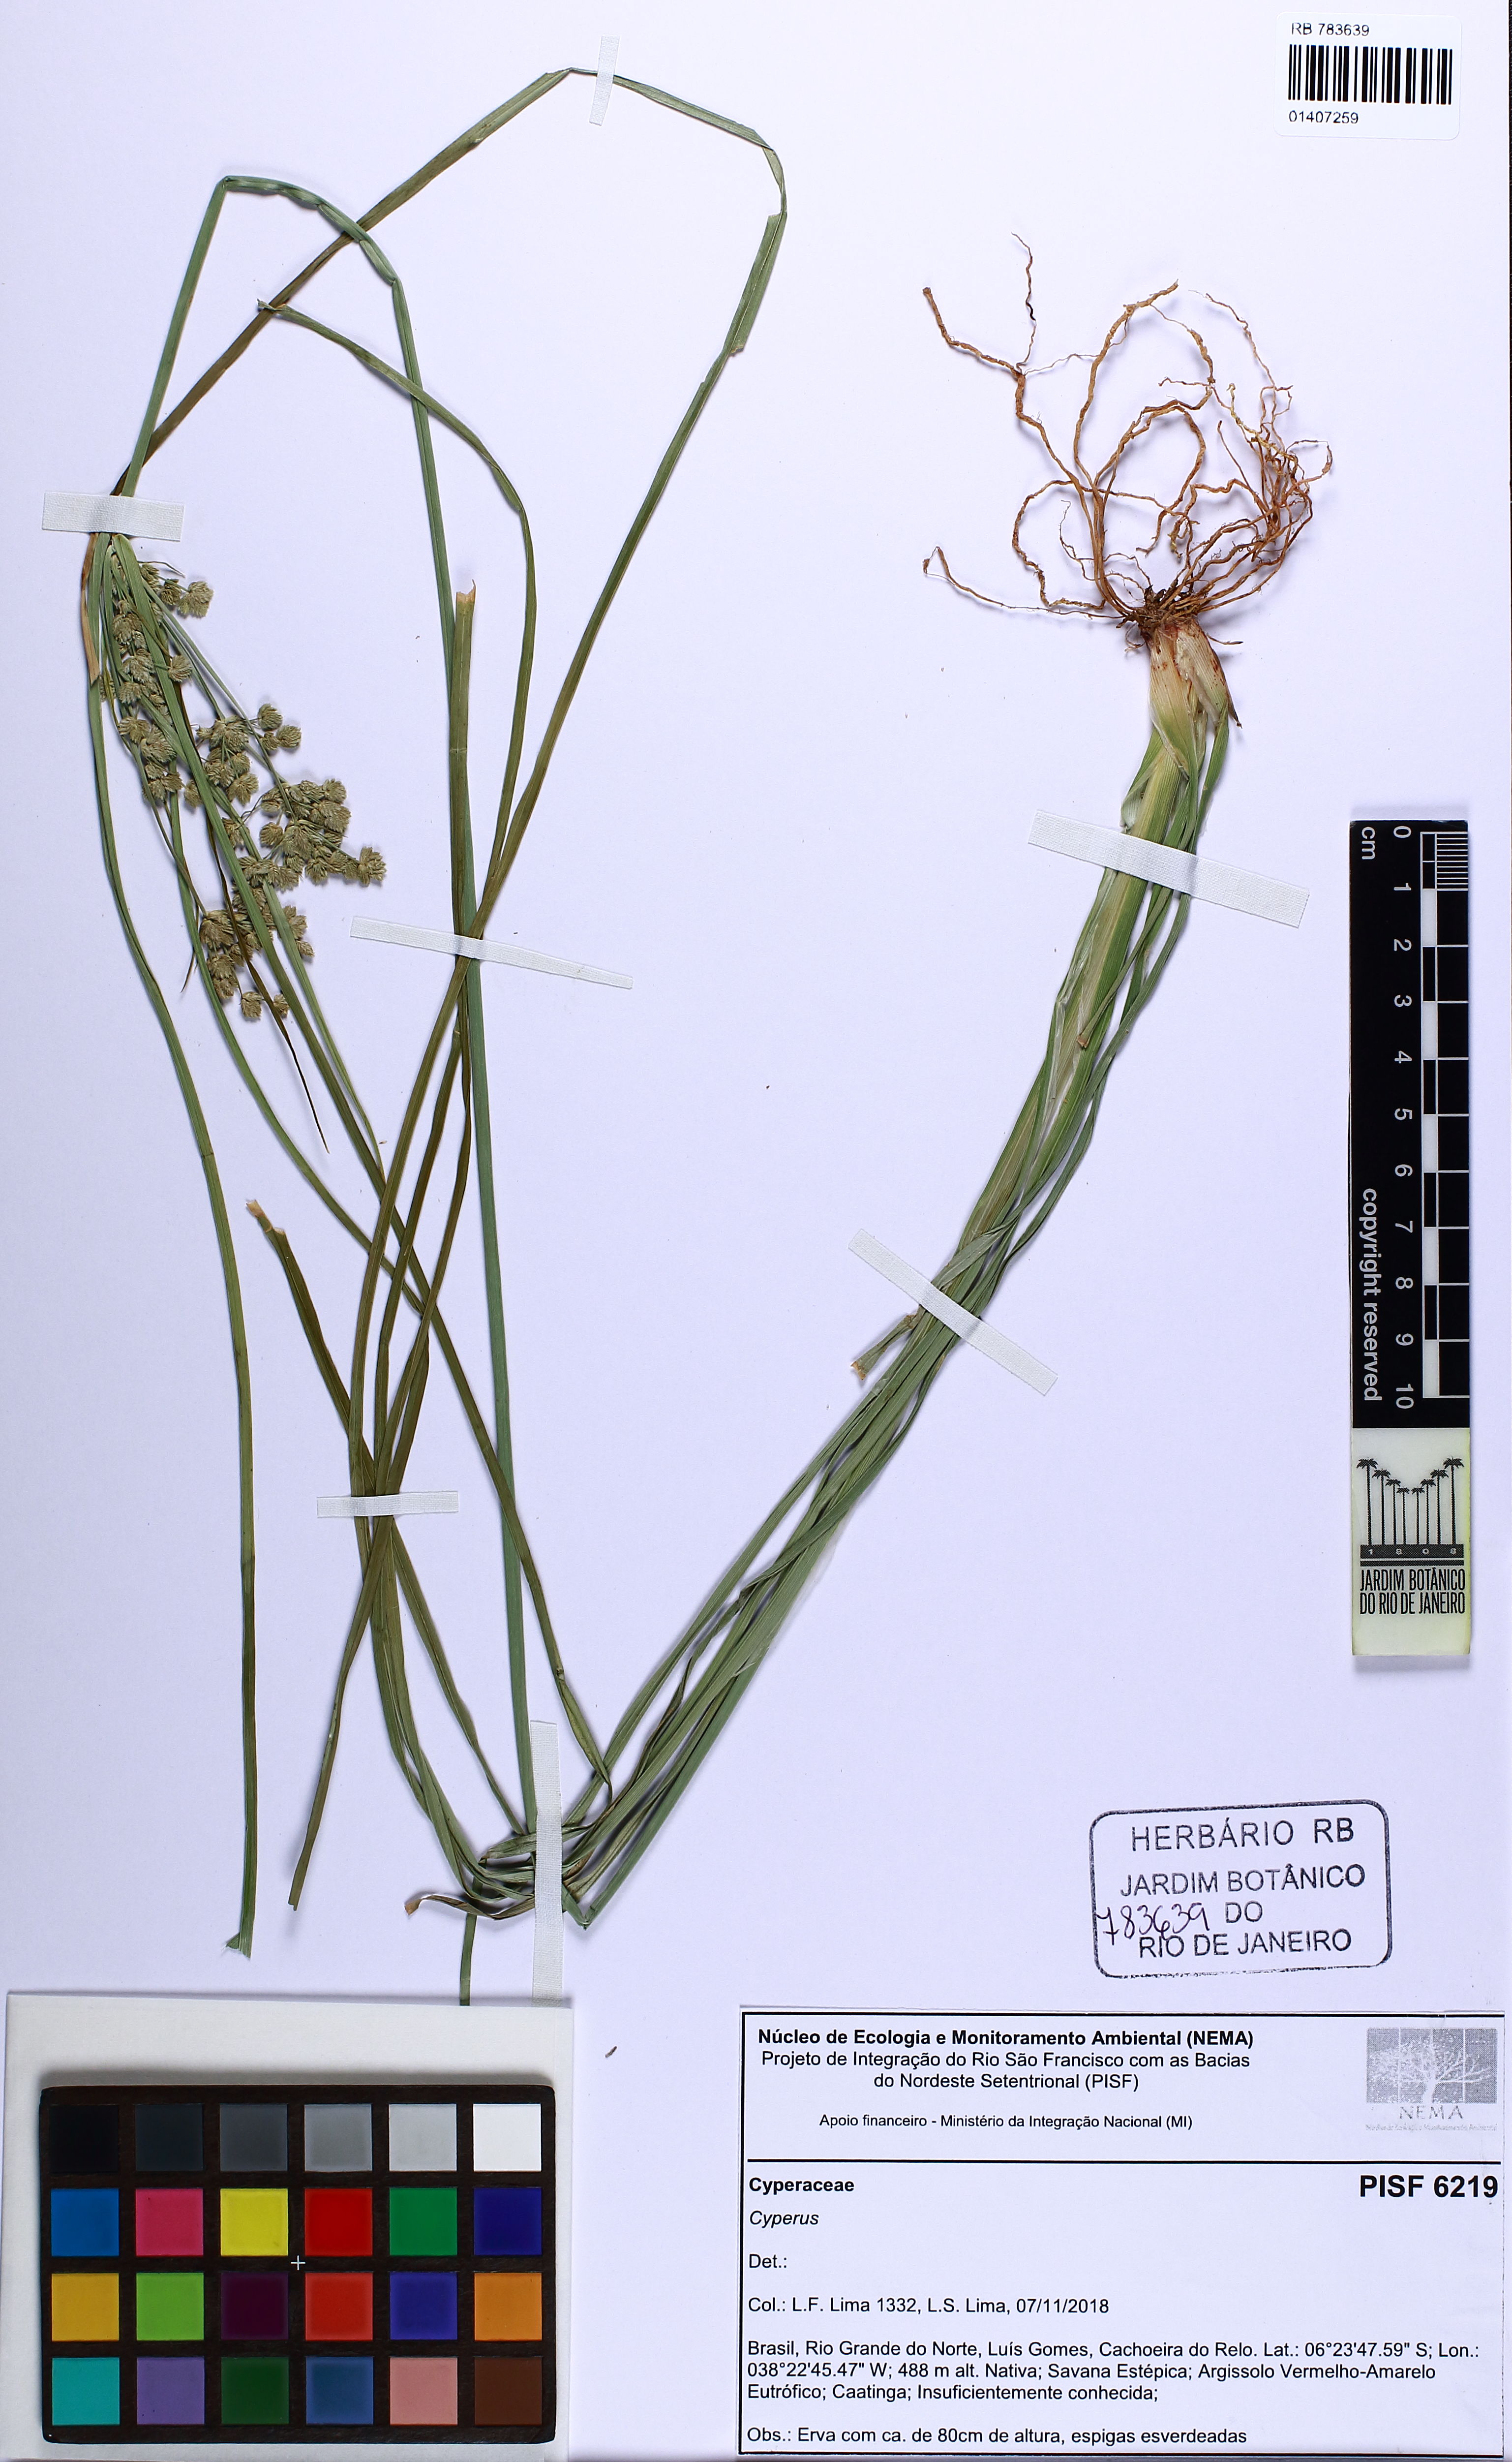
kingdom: Plantae
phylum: Tracheophyta
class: Liliopsida
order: Poales
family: Cyperaceae
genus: Cyperus
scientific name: Cyperus surinamensis
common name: Tropical flat sedge
